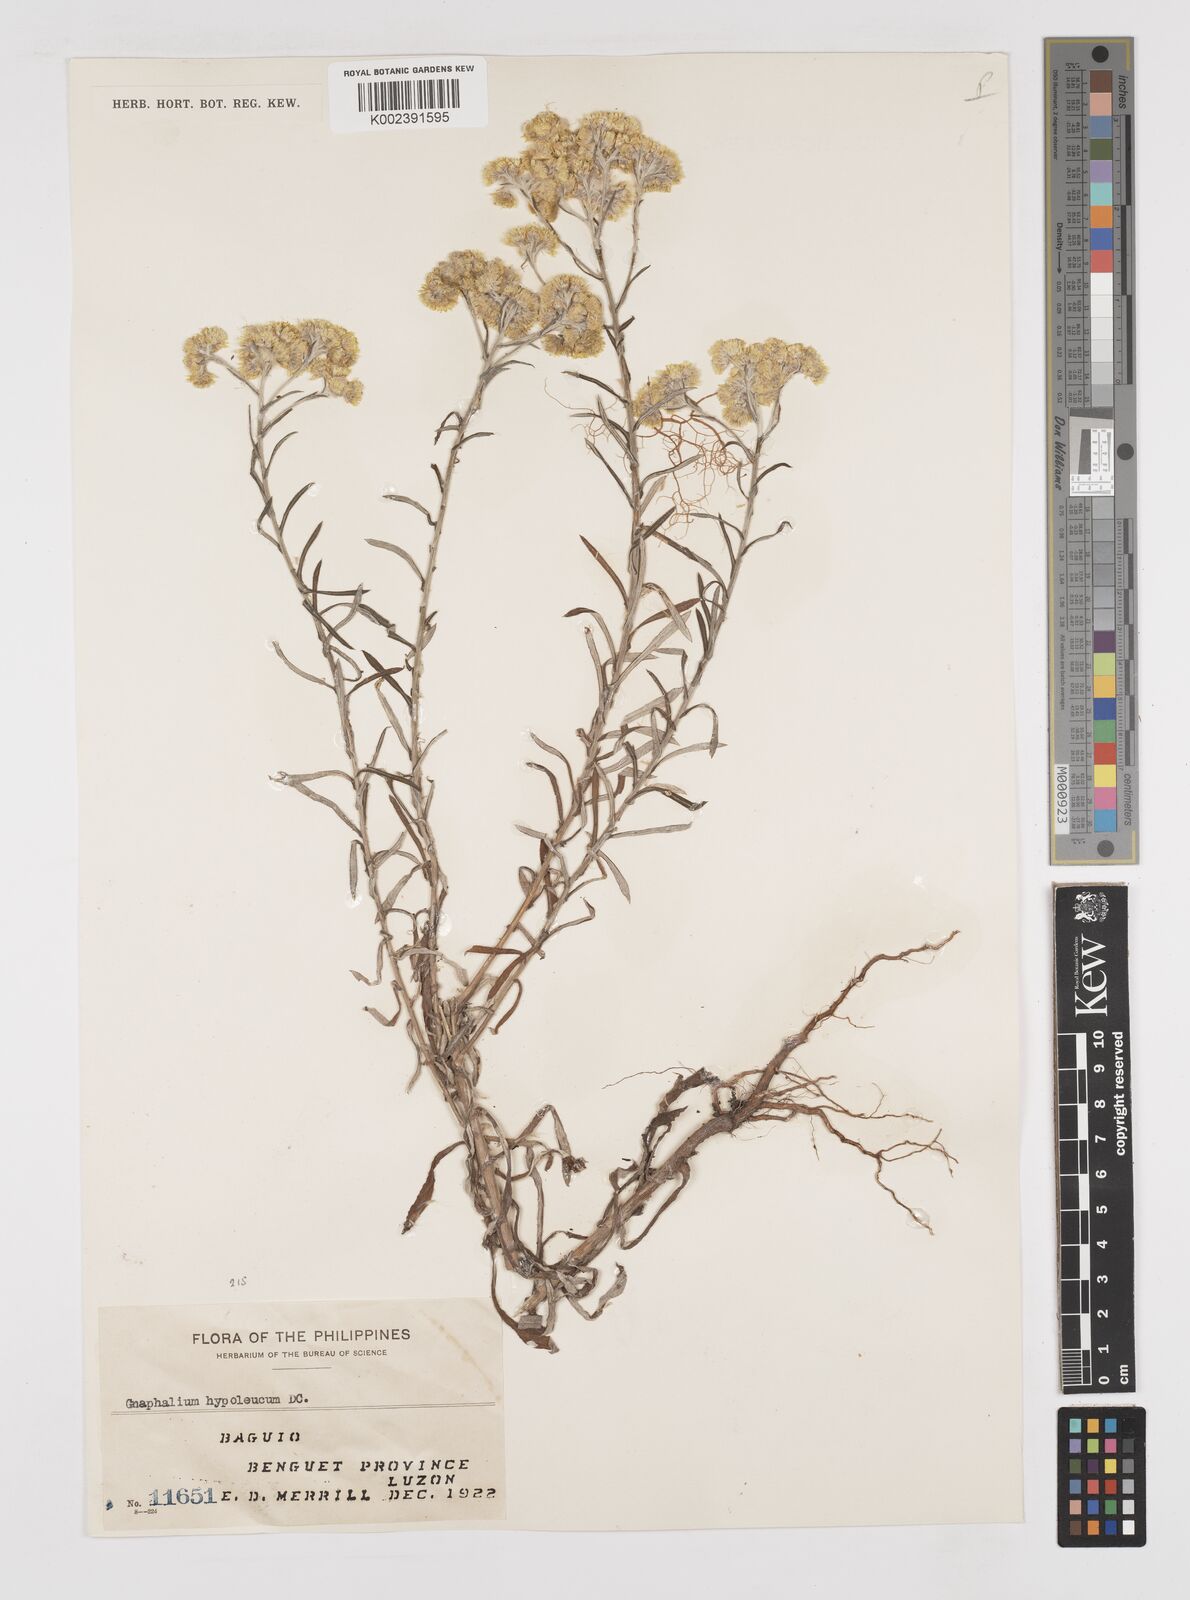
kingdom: Plantae
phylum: Tracheophyta
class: Magnoliopsida
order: Asterales
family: Asteraceae
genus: Pseudognaphalium
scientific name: Pseudognaphalium hypoleucum
